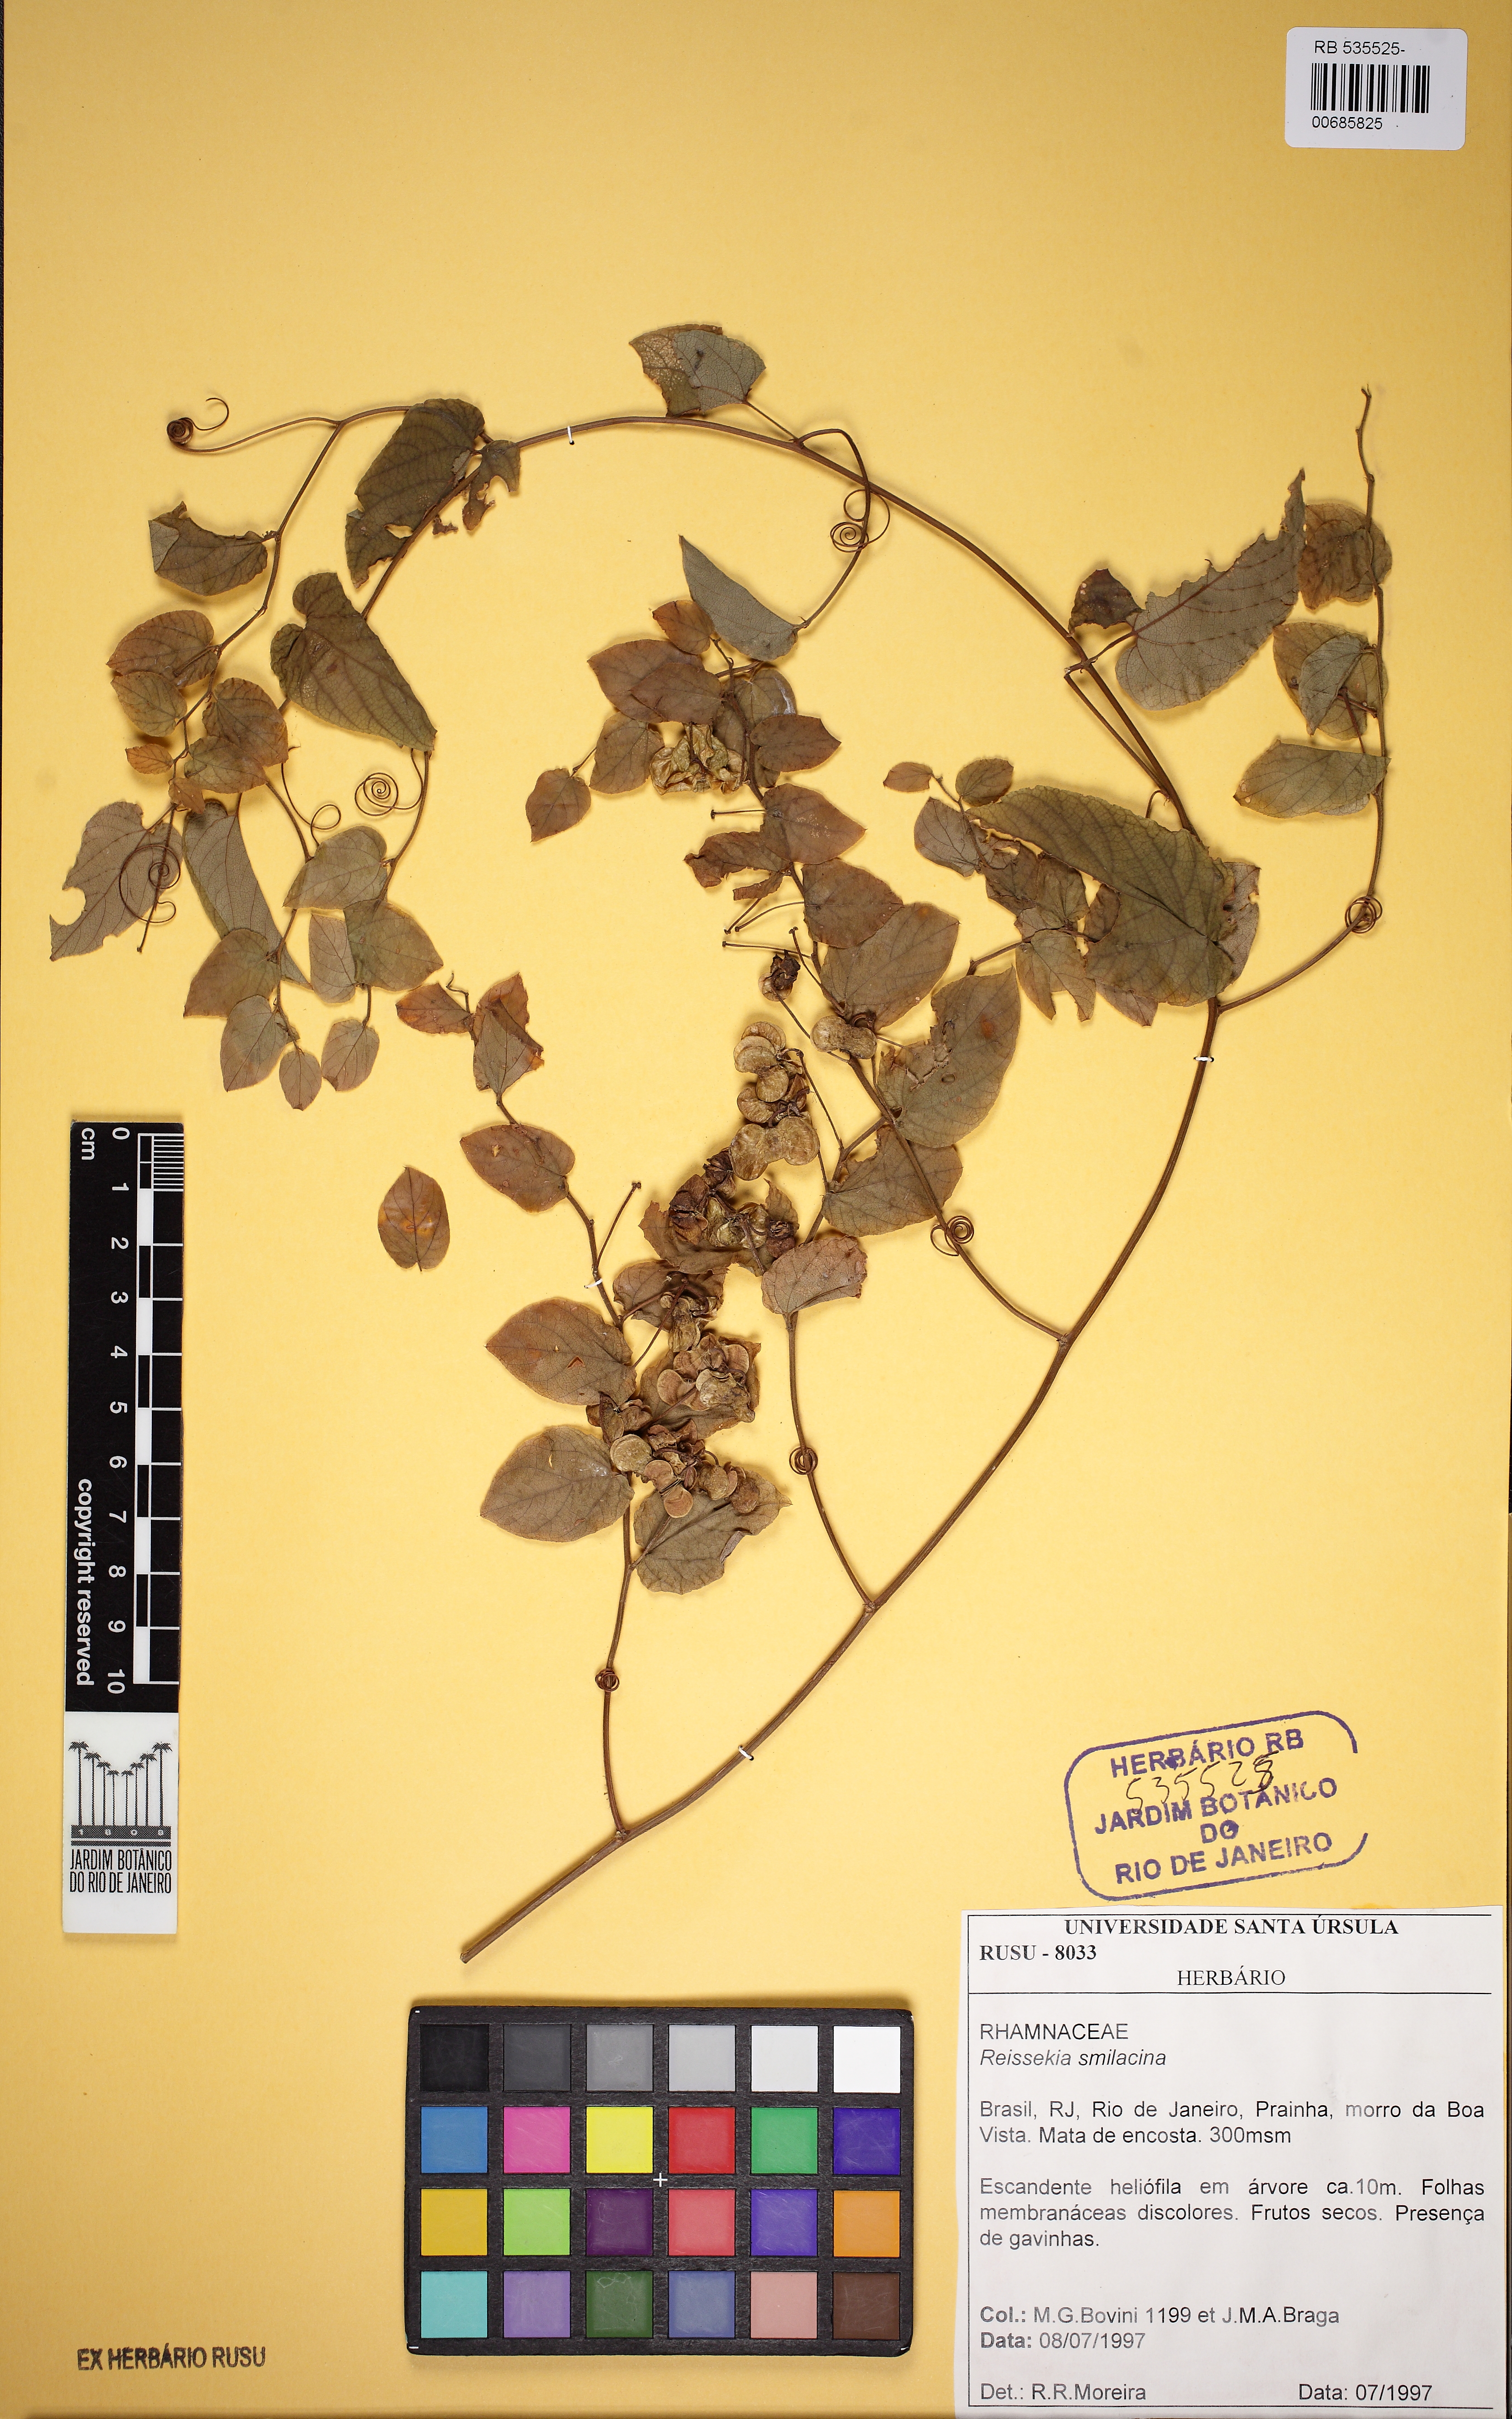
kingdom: Plantae
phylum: Tracheophyta
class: Magnoliopsida
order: Rosales
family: Rhamnaceae
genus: Reissekia
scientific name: Reissekia smilacina
